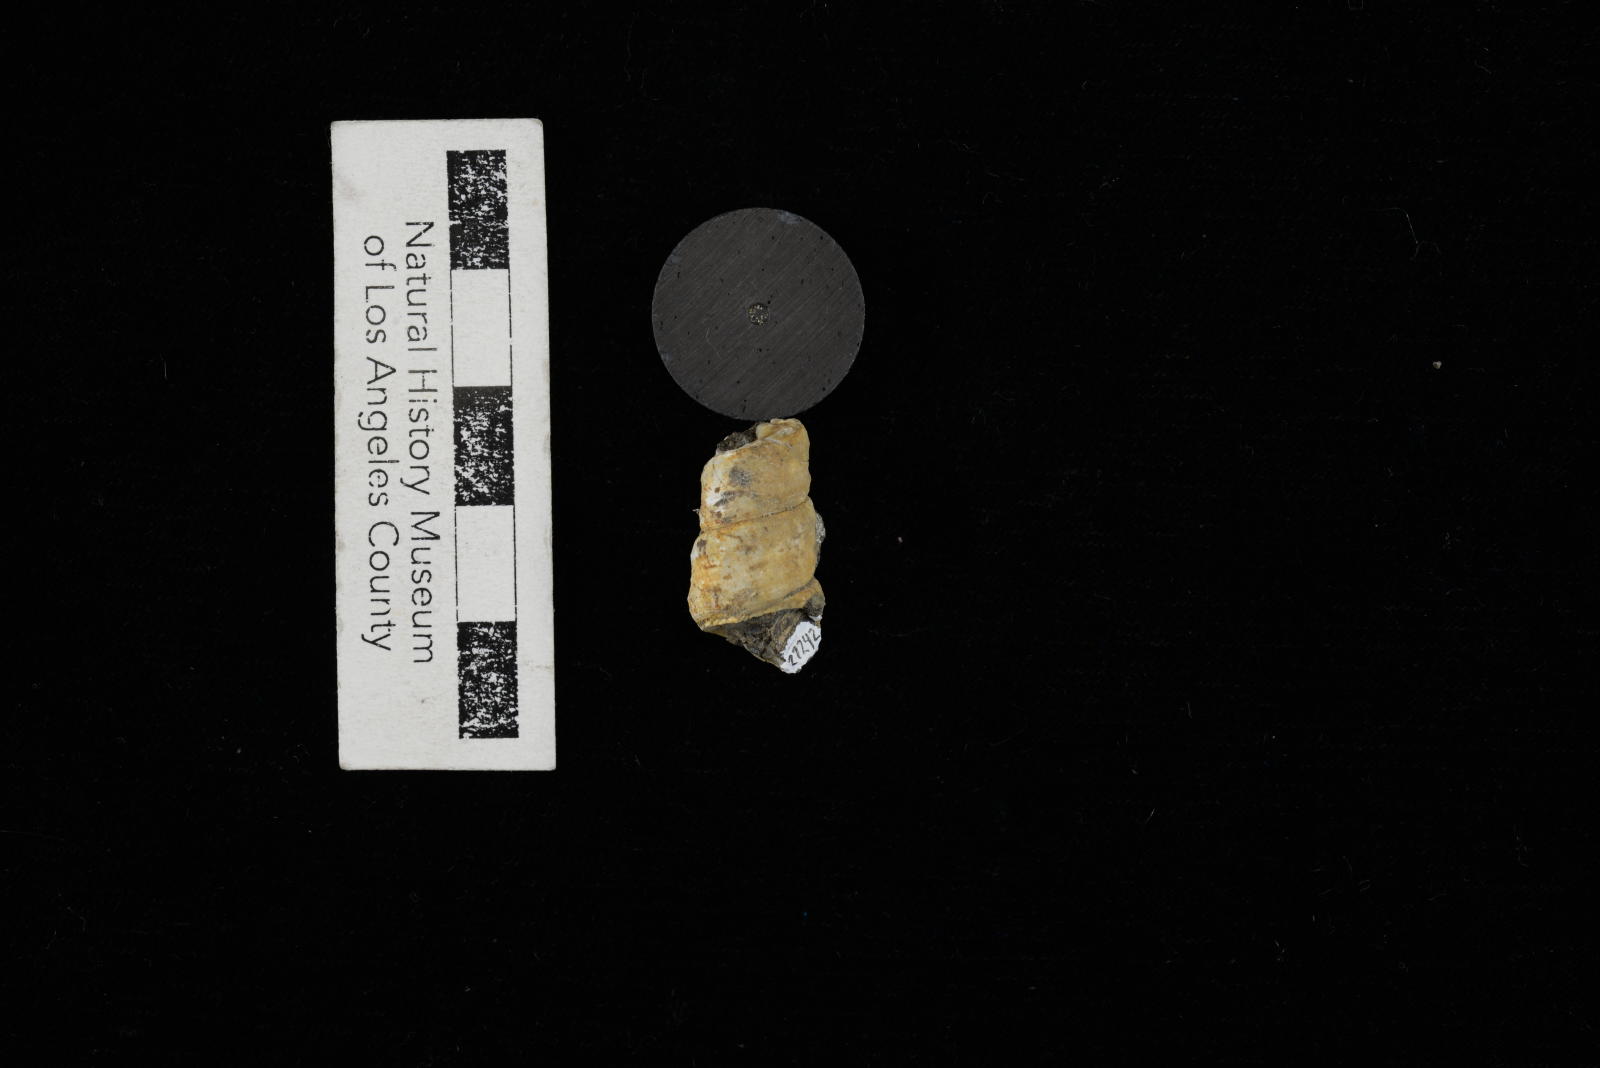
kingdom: Animalia
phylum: Mollusca
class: Gastropoda
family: Turritellidae
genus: Turritella
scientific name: Turritella xylina
